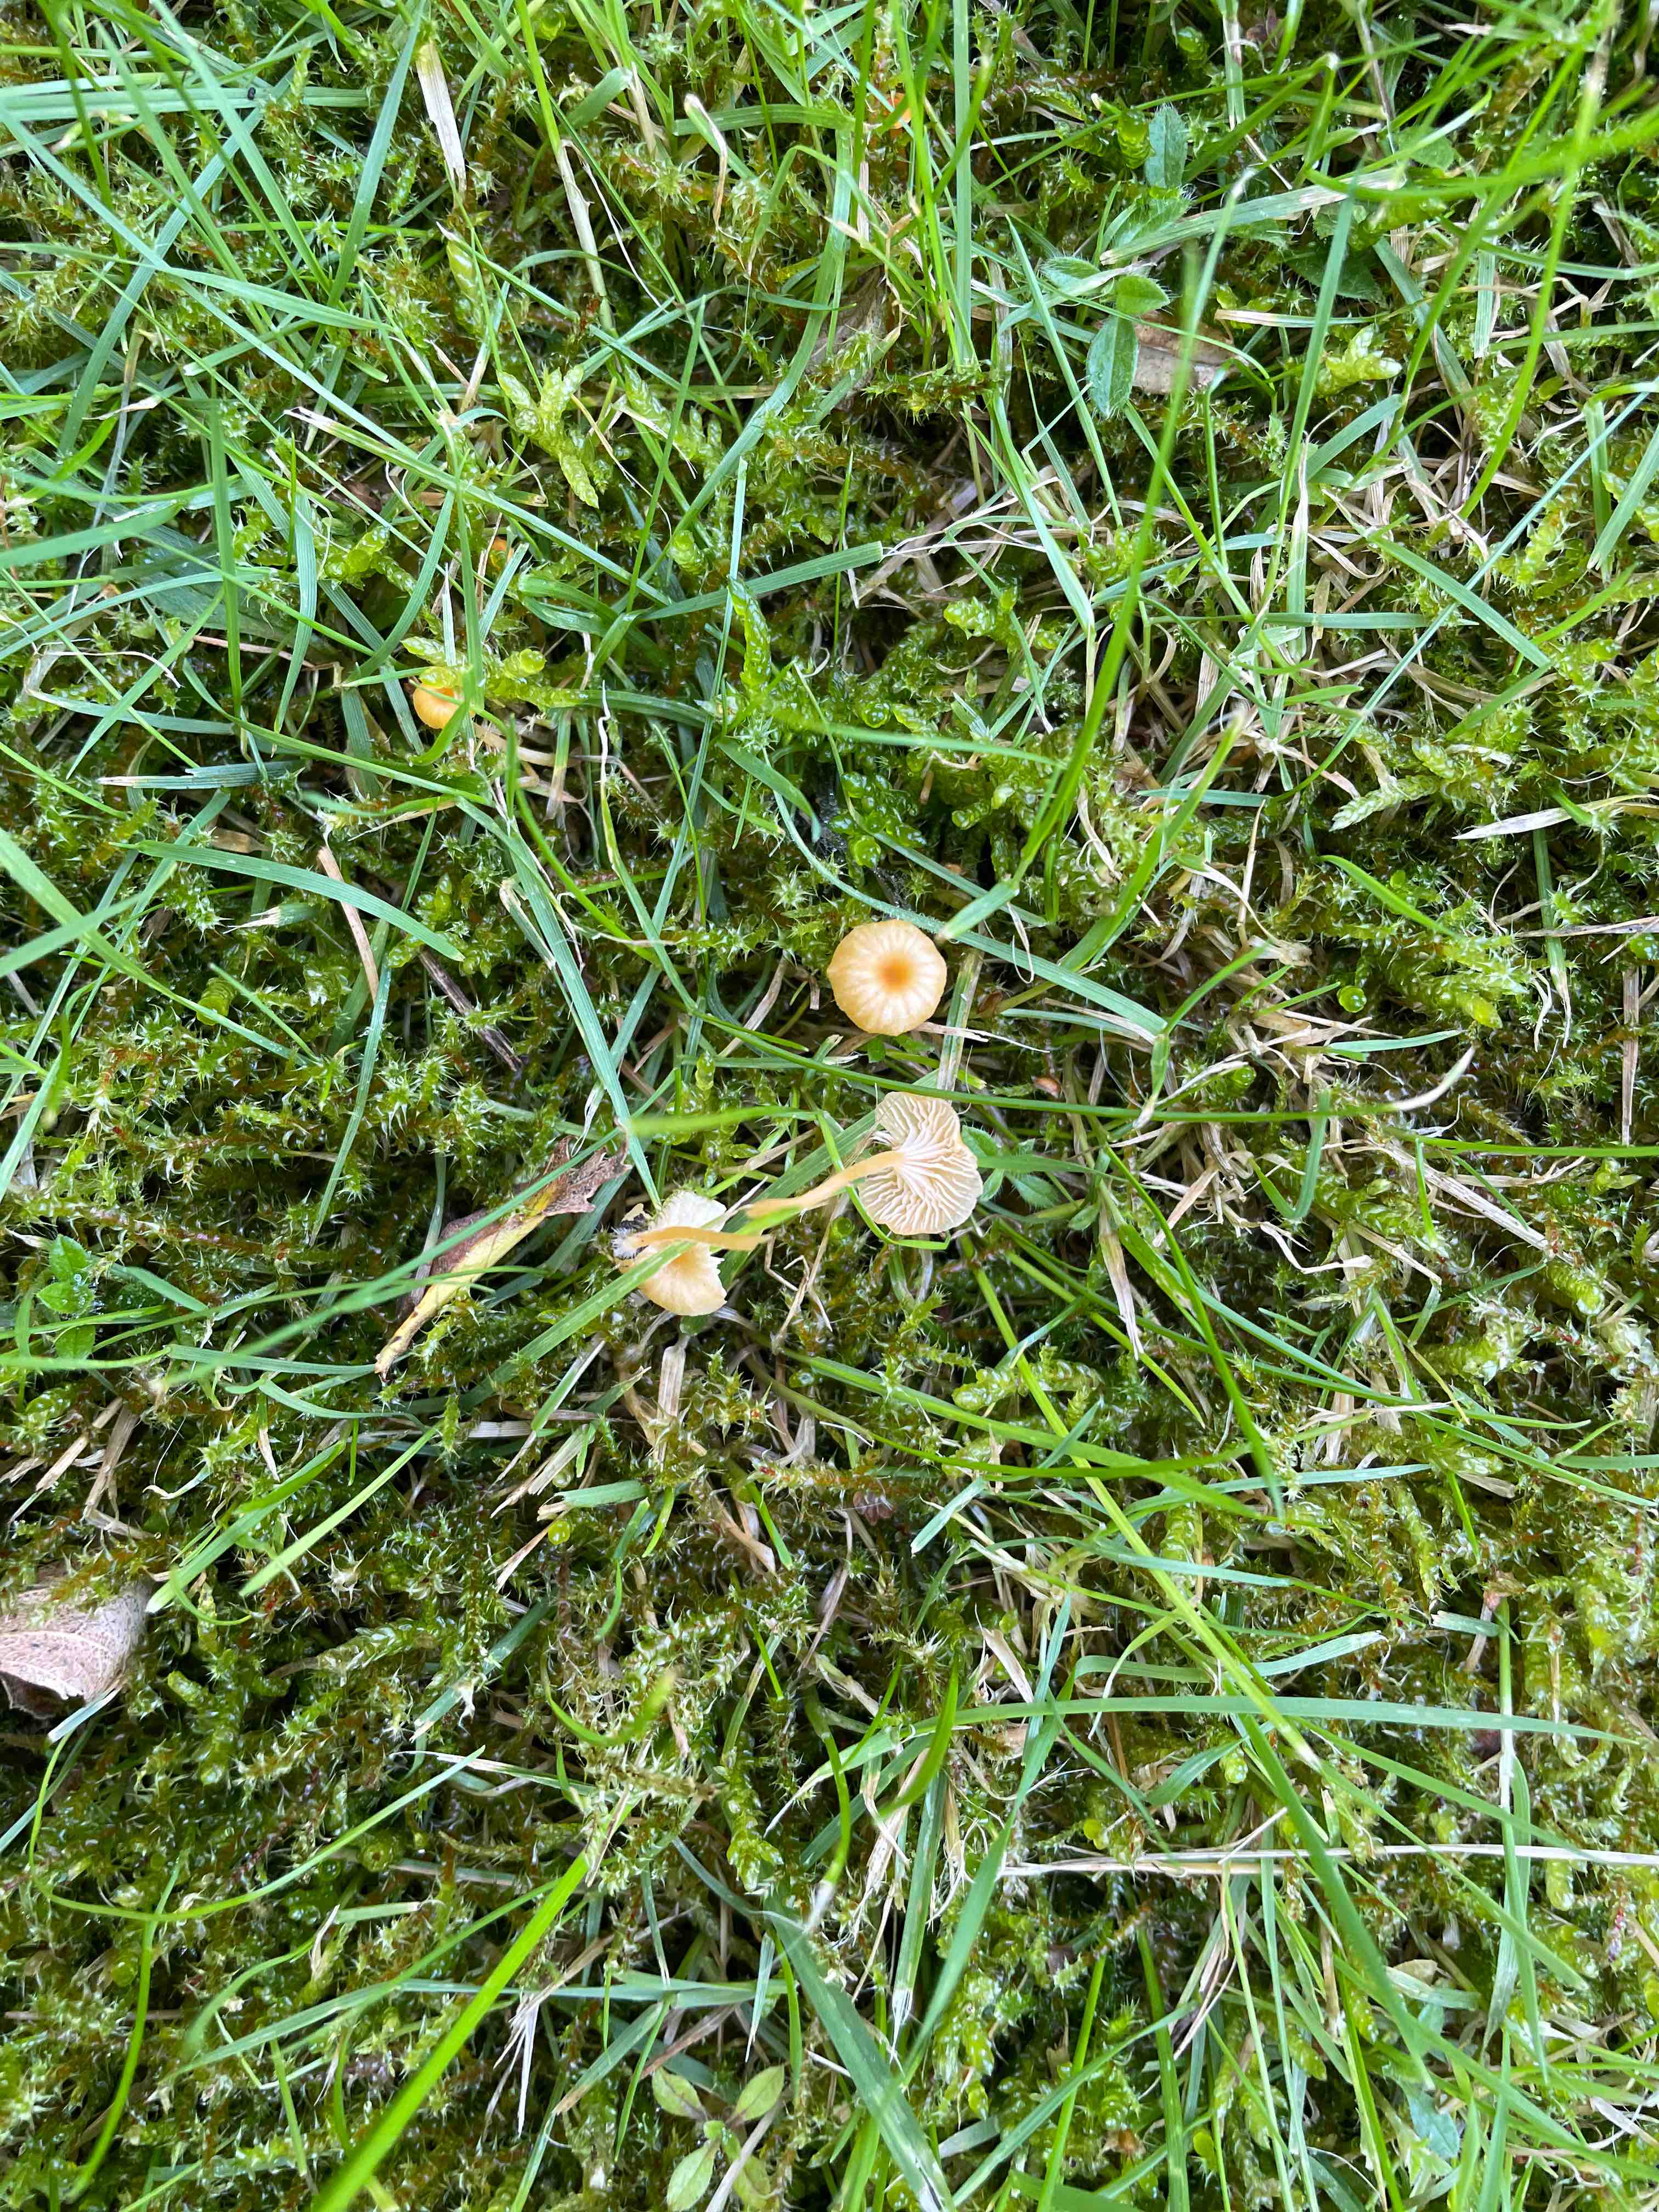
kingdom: Fungi
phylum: Basidiomycota
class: Agaricomycetes
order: Hymenochaetales
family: Rickenellaceae
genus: Rickenella
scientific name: Rickenella fibula
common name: orange mosnavlehat
